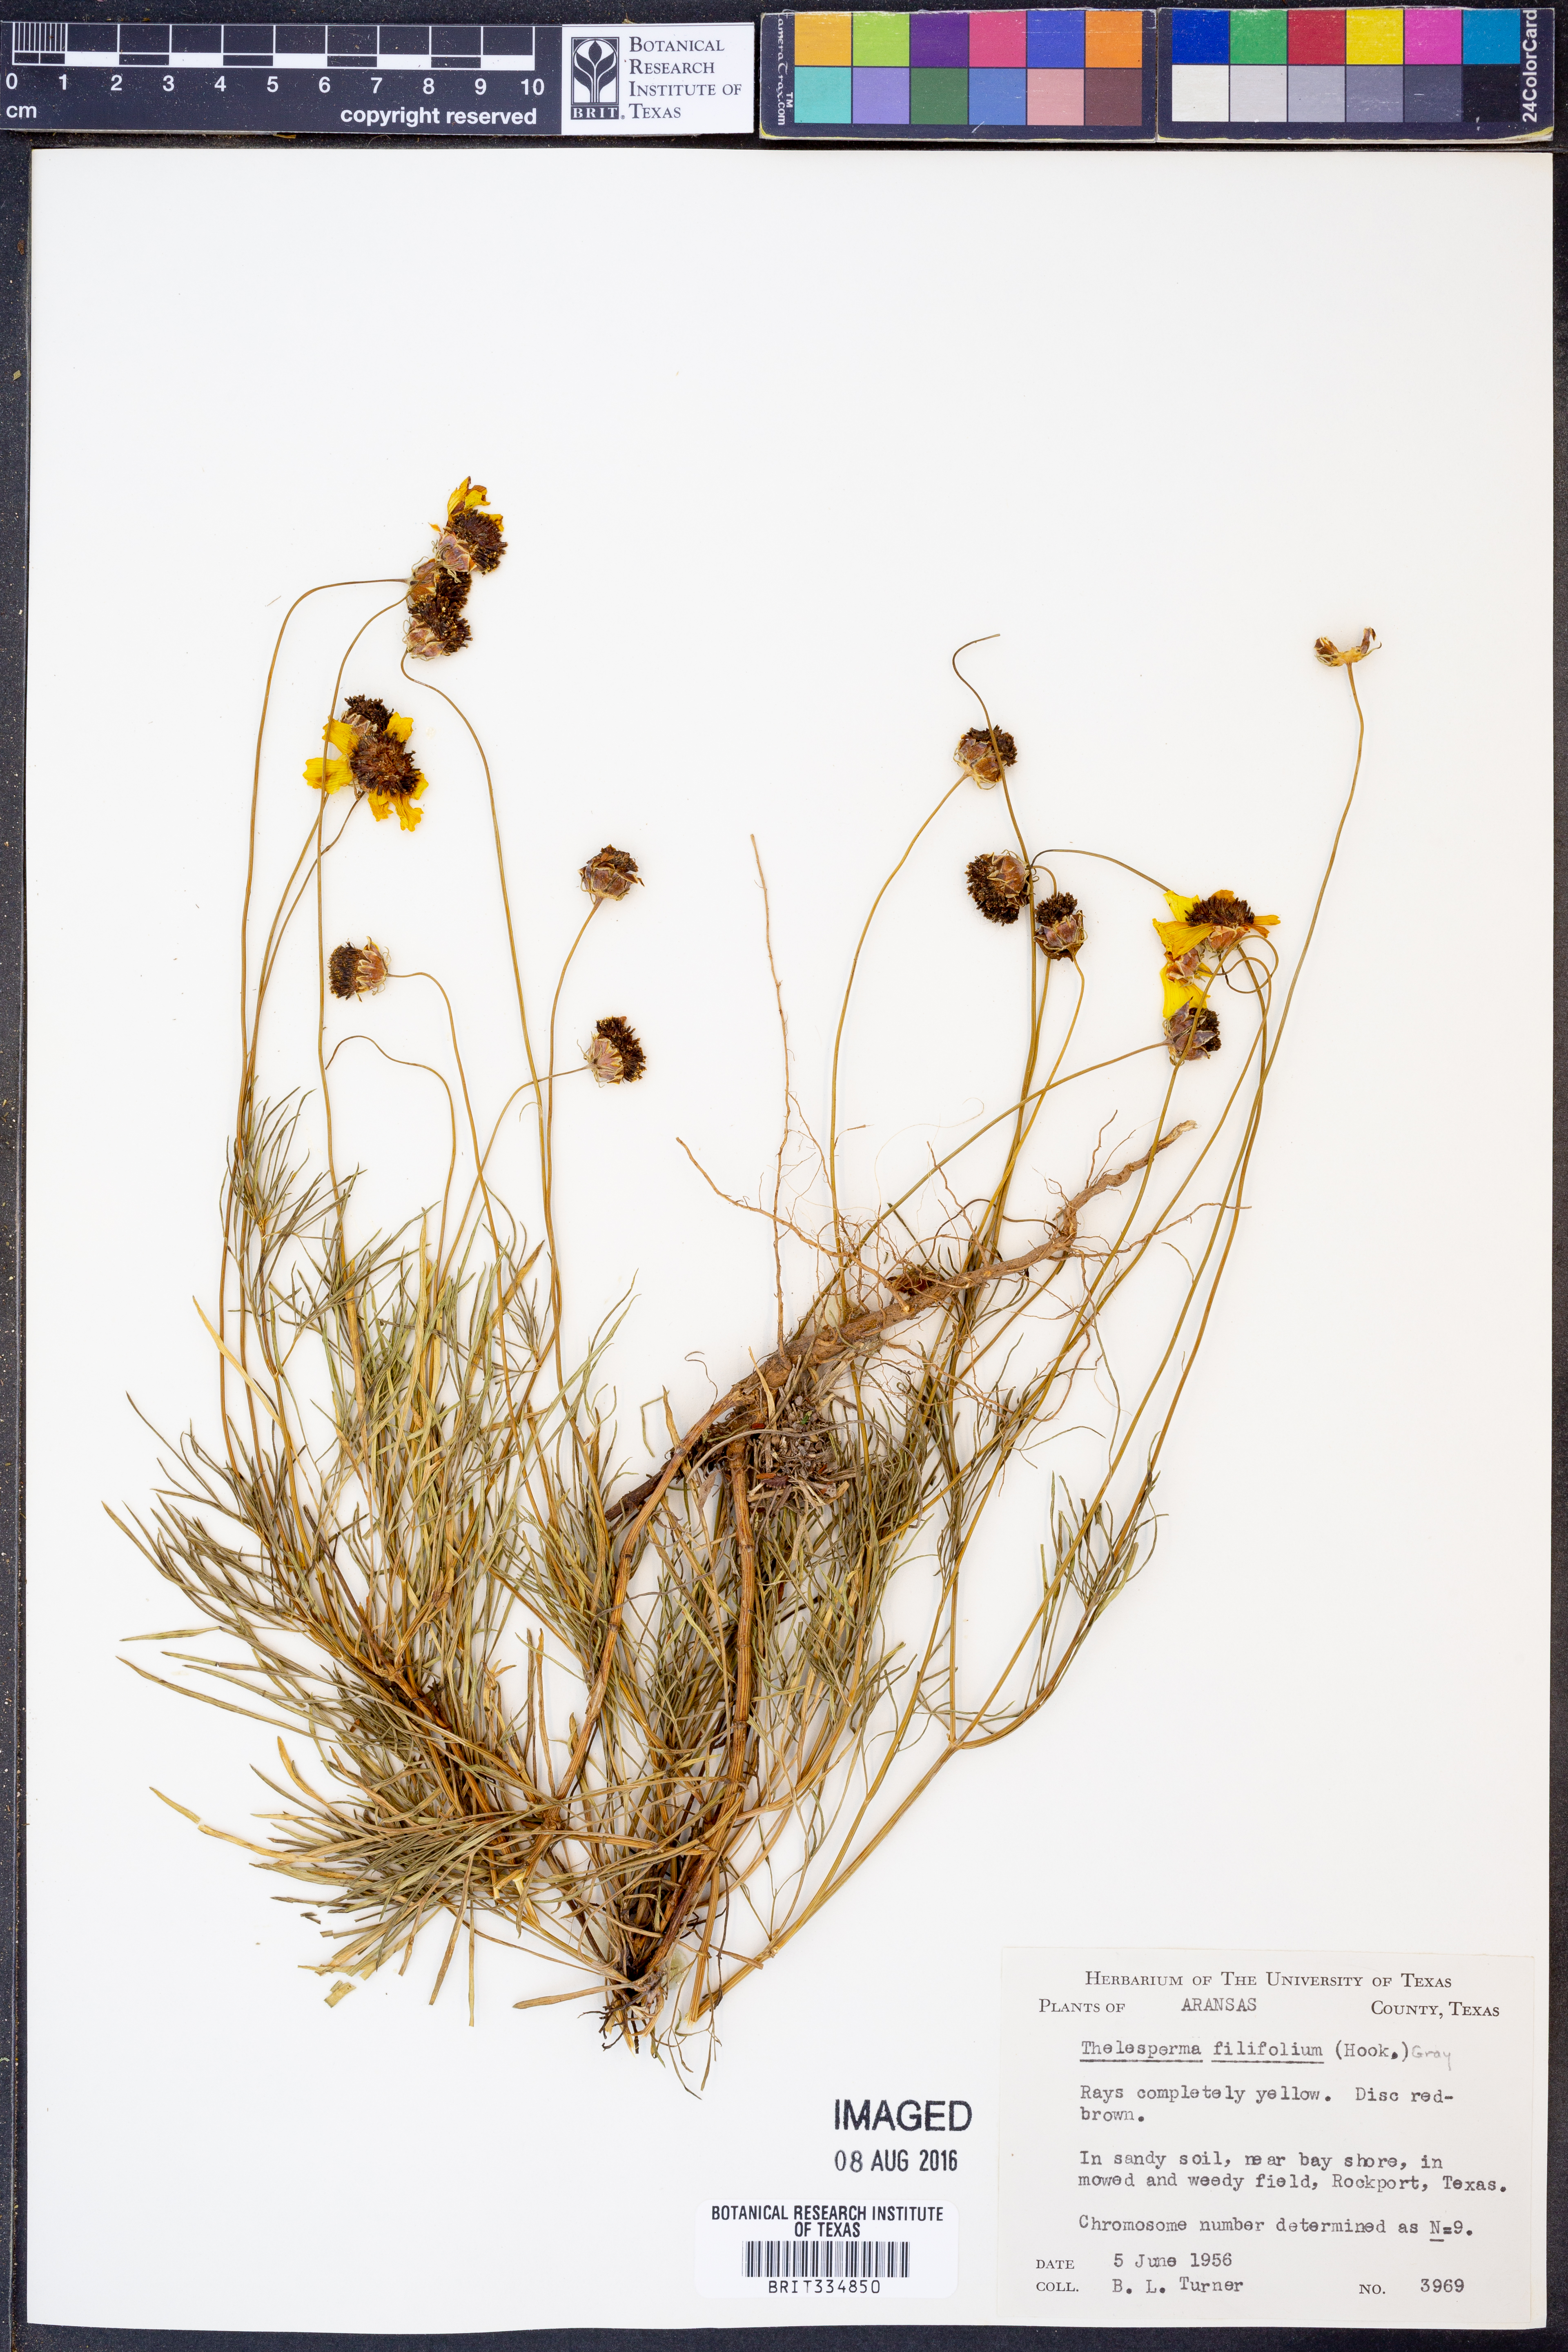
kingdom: Plantae
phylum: Tracheophyta
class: Magnoliopsida
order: Asterales
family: Asteraceae
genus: Thelesperma
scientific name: Thelesperma filifolium
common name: Stiff greenthread
